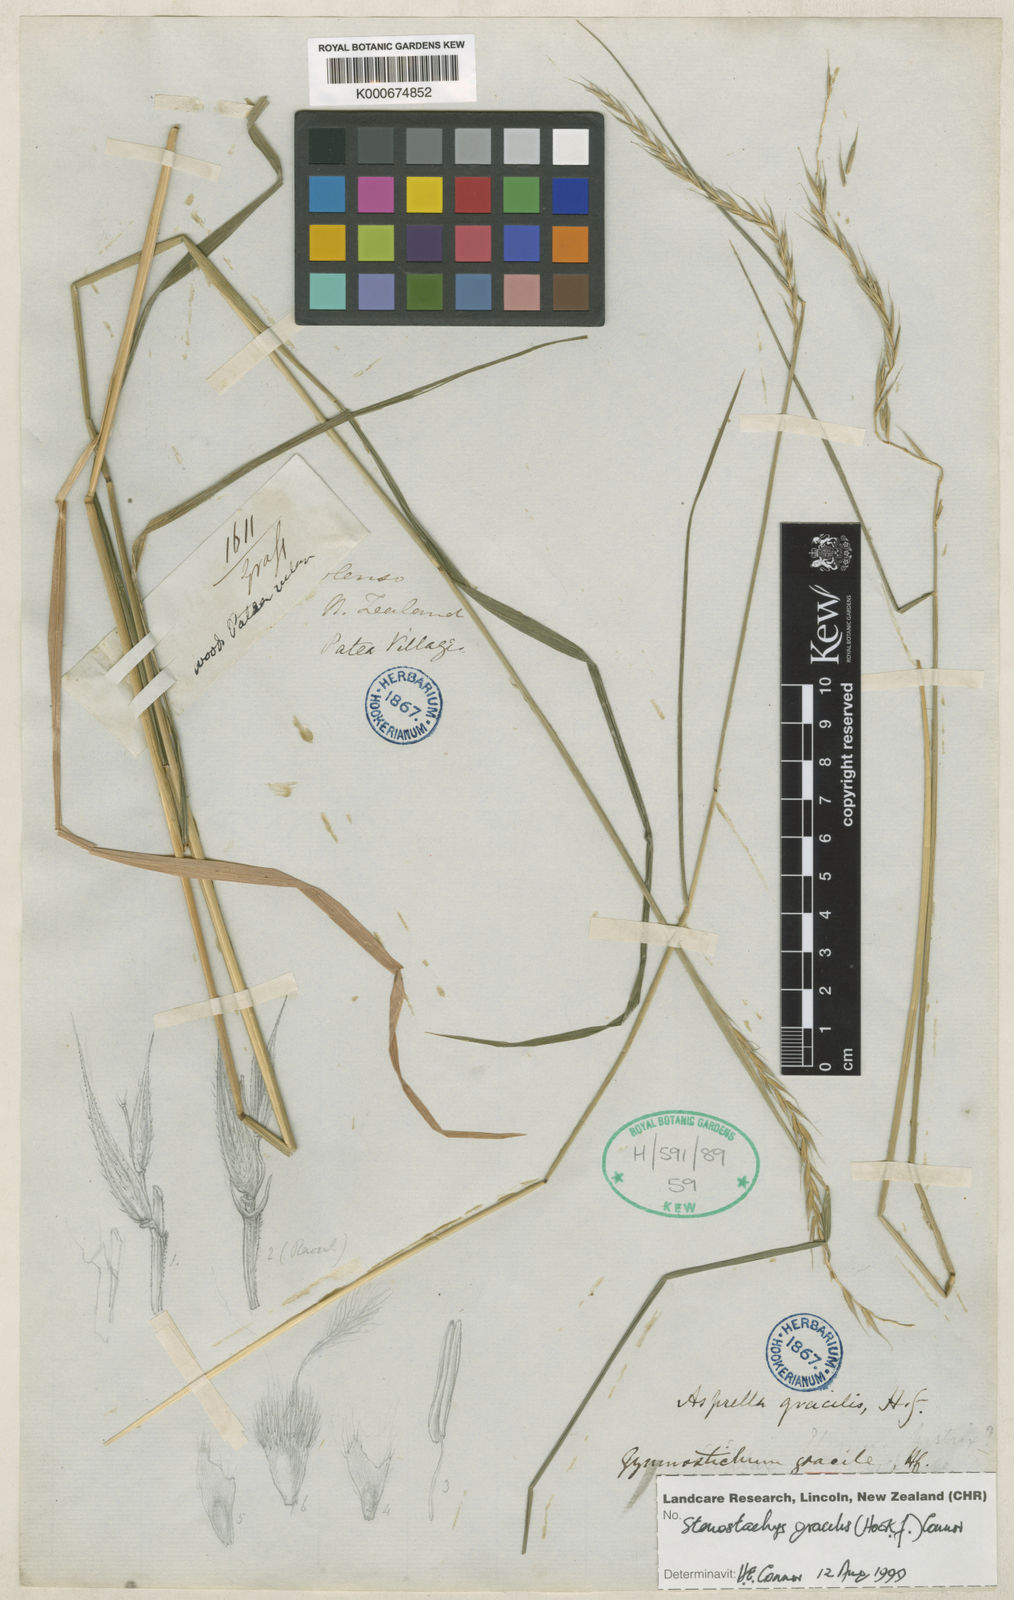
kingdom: Plantae
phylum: Tracheophyta
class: Liliopsida
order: Poales
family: Poaceae
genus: Hystrix
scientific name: Hystrix
